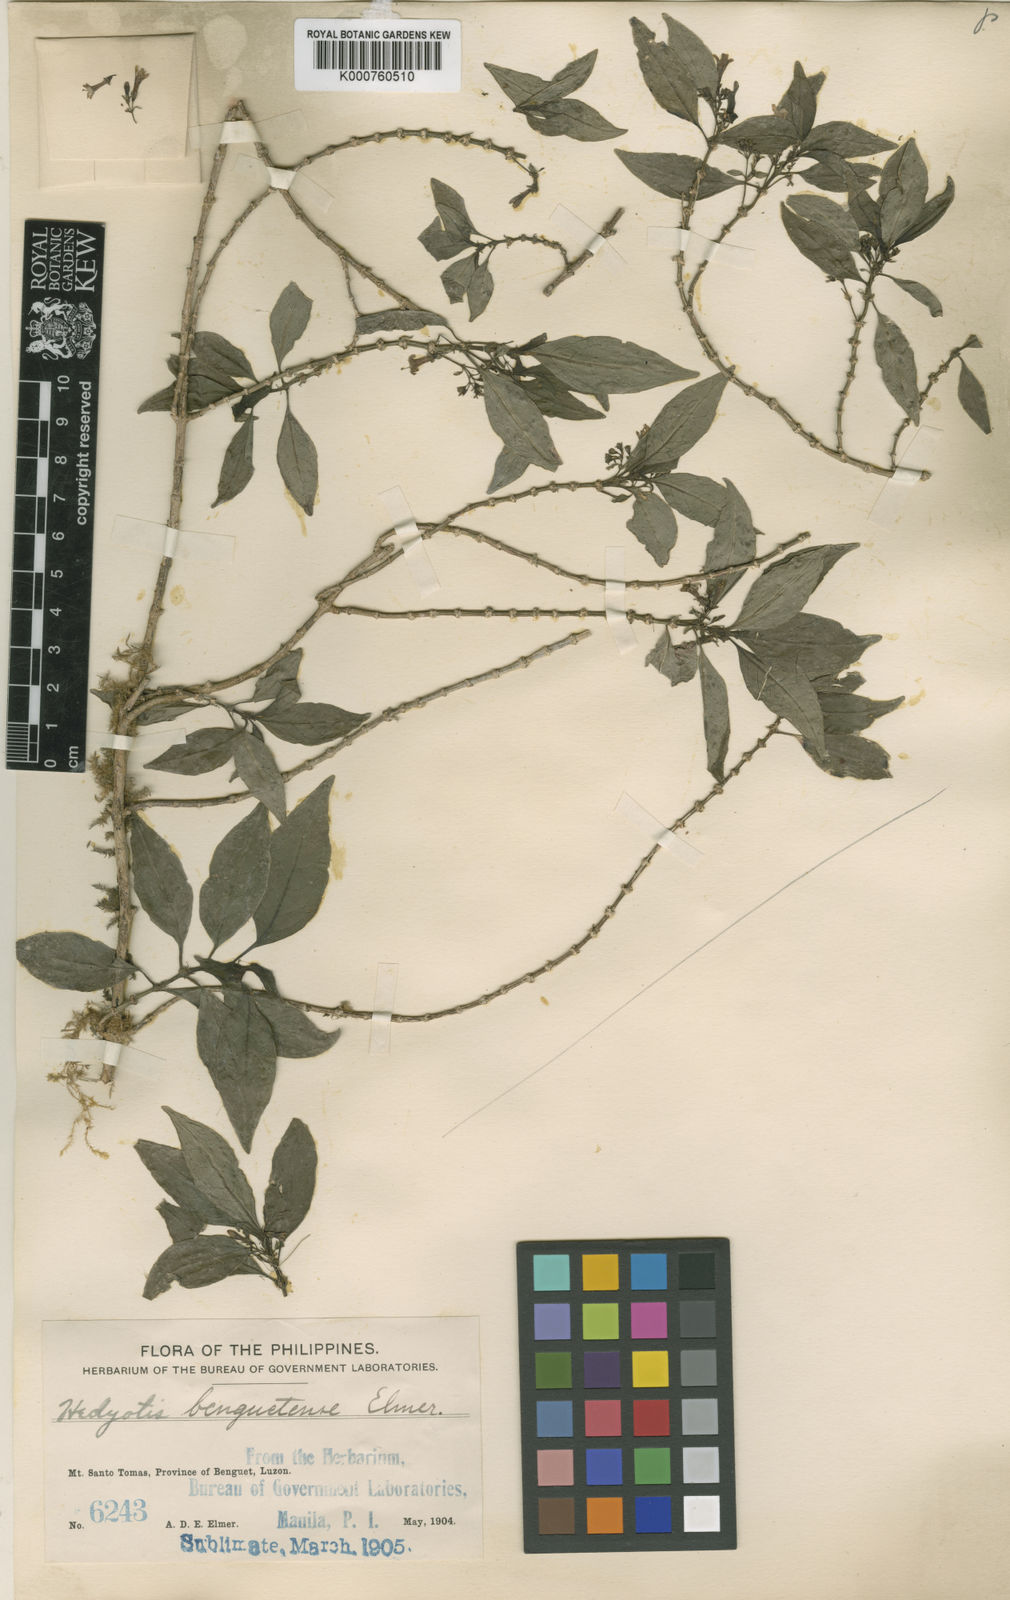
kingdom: Plantae
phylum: Tracheophyta
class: Magnoliopsida
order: Gentianales
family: Rubiaceae
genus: Hedyotis
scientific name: Hedyotis benguetensis
